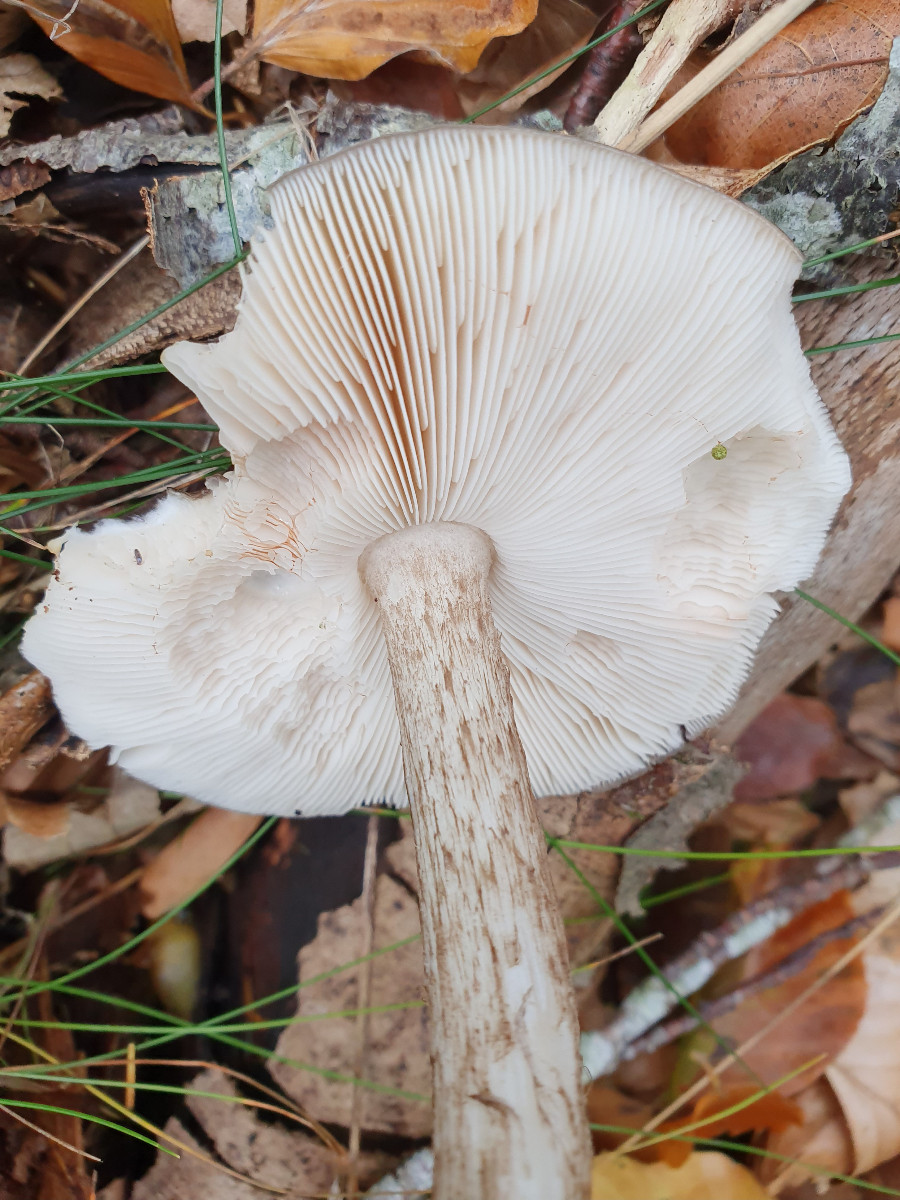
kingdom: Fungi
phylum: Basidiomycota
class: Agaricomycetes
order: Agaricales
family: Pluteaceae
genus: Pluteus
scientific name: Pluteus cervinus
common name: sodfarvet skærmhat
